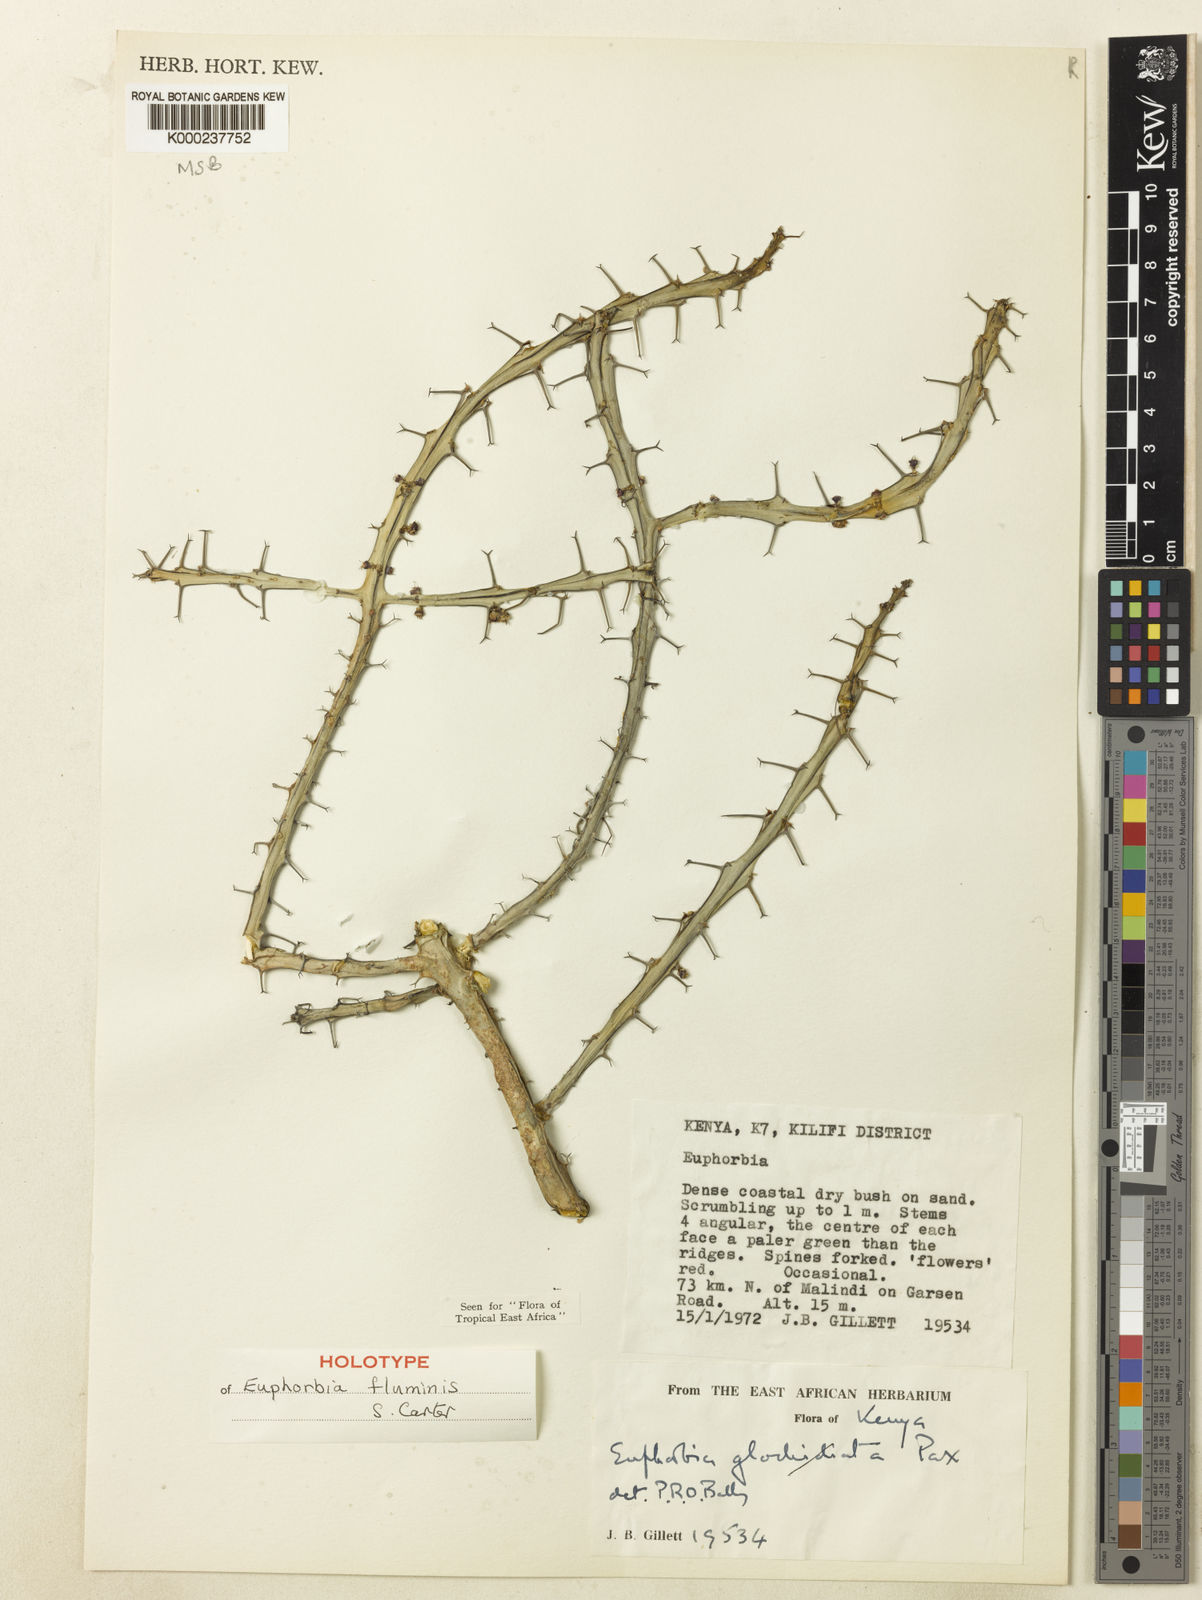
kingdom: Plantae
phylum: Tracheophyta
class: Magnoliopsida
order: Malpighiales
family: Euphorbiaceae
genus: Euphorbia
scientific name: Euphorbia fluminis
